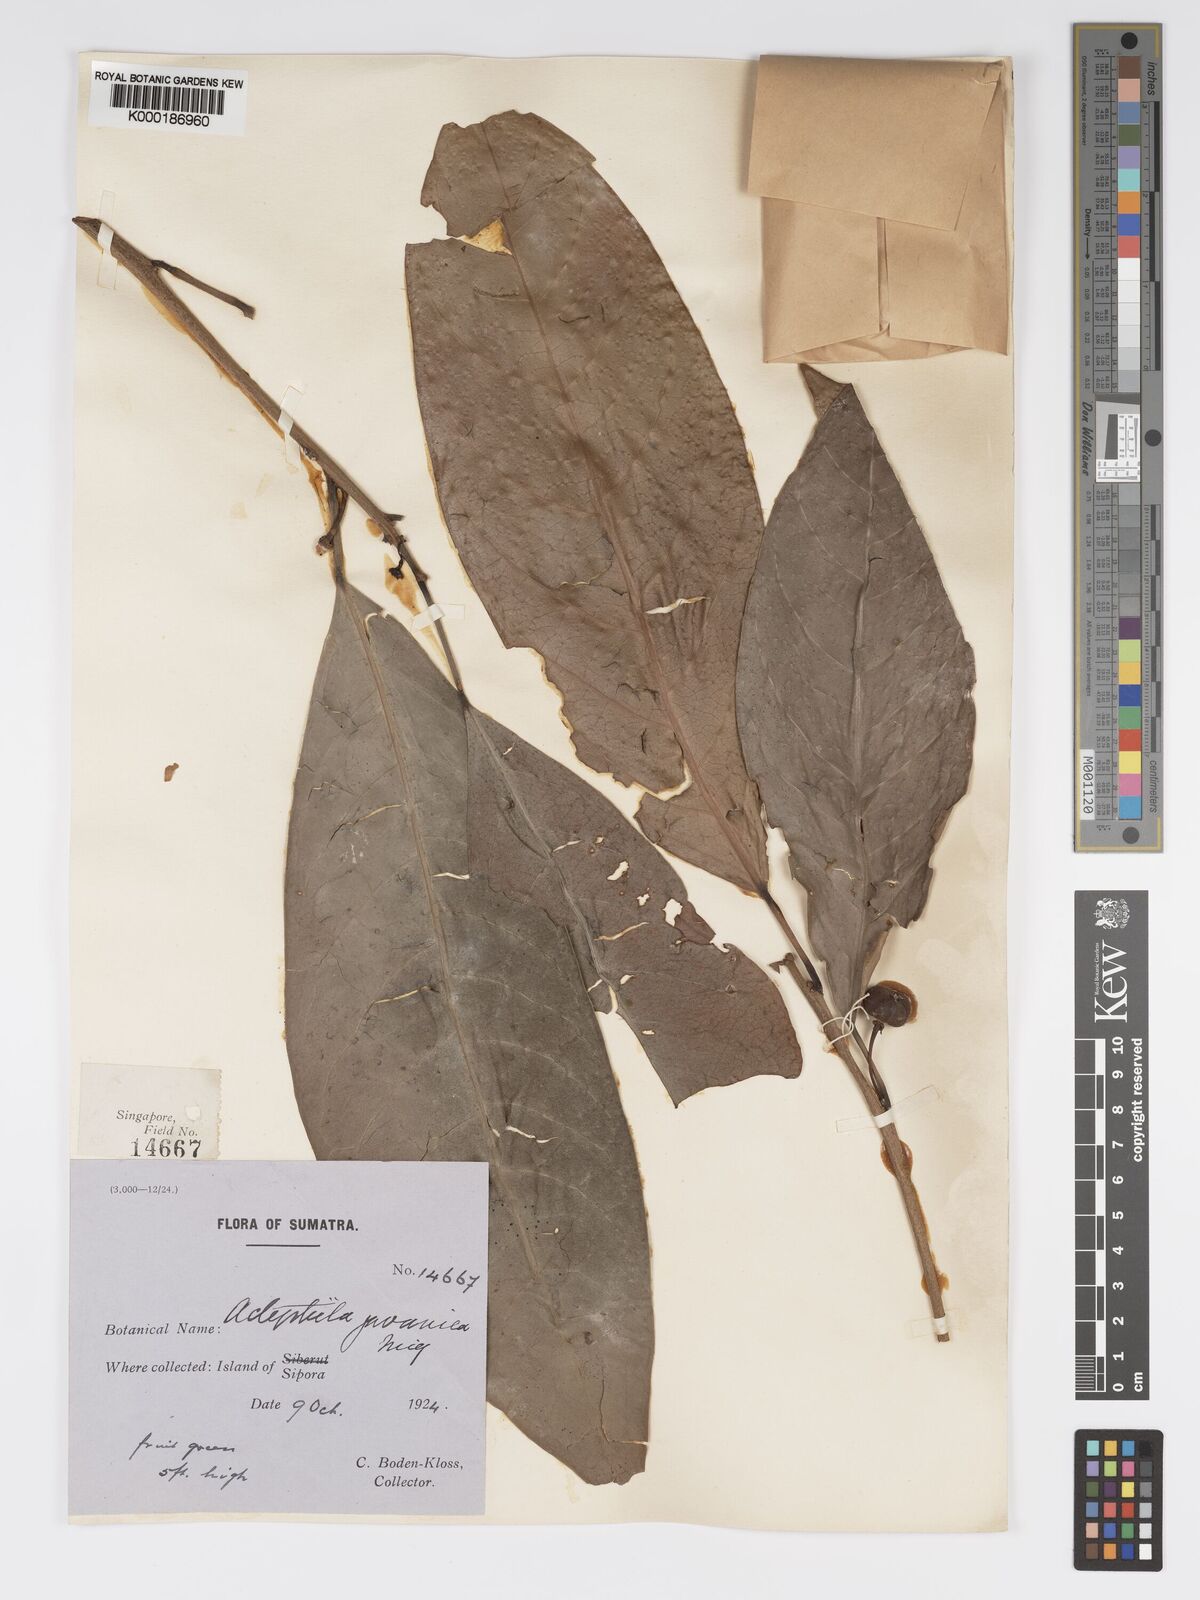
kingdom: Plantae
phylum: Tracheophyta
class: Magnoliopsida
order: Malpighiales
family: Phyllanthaceae
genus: Actephila
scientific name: Actephila
